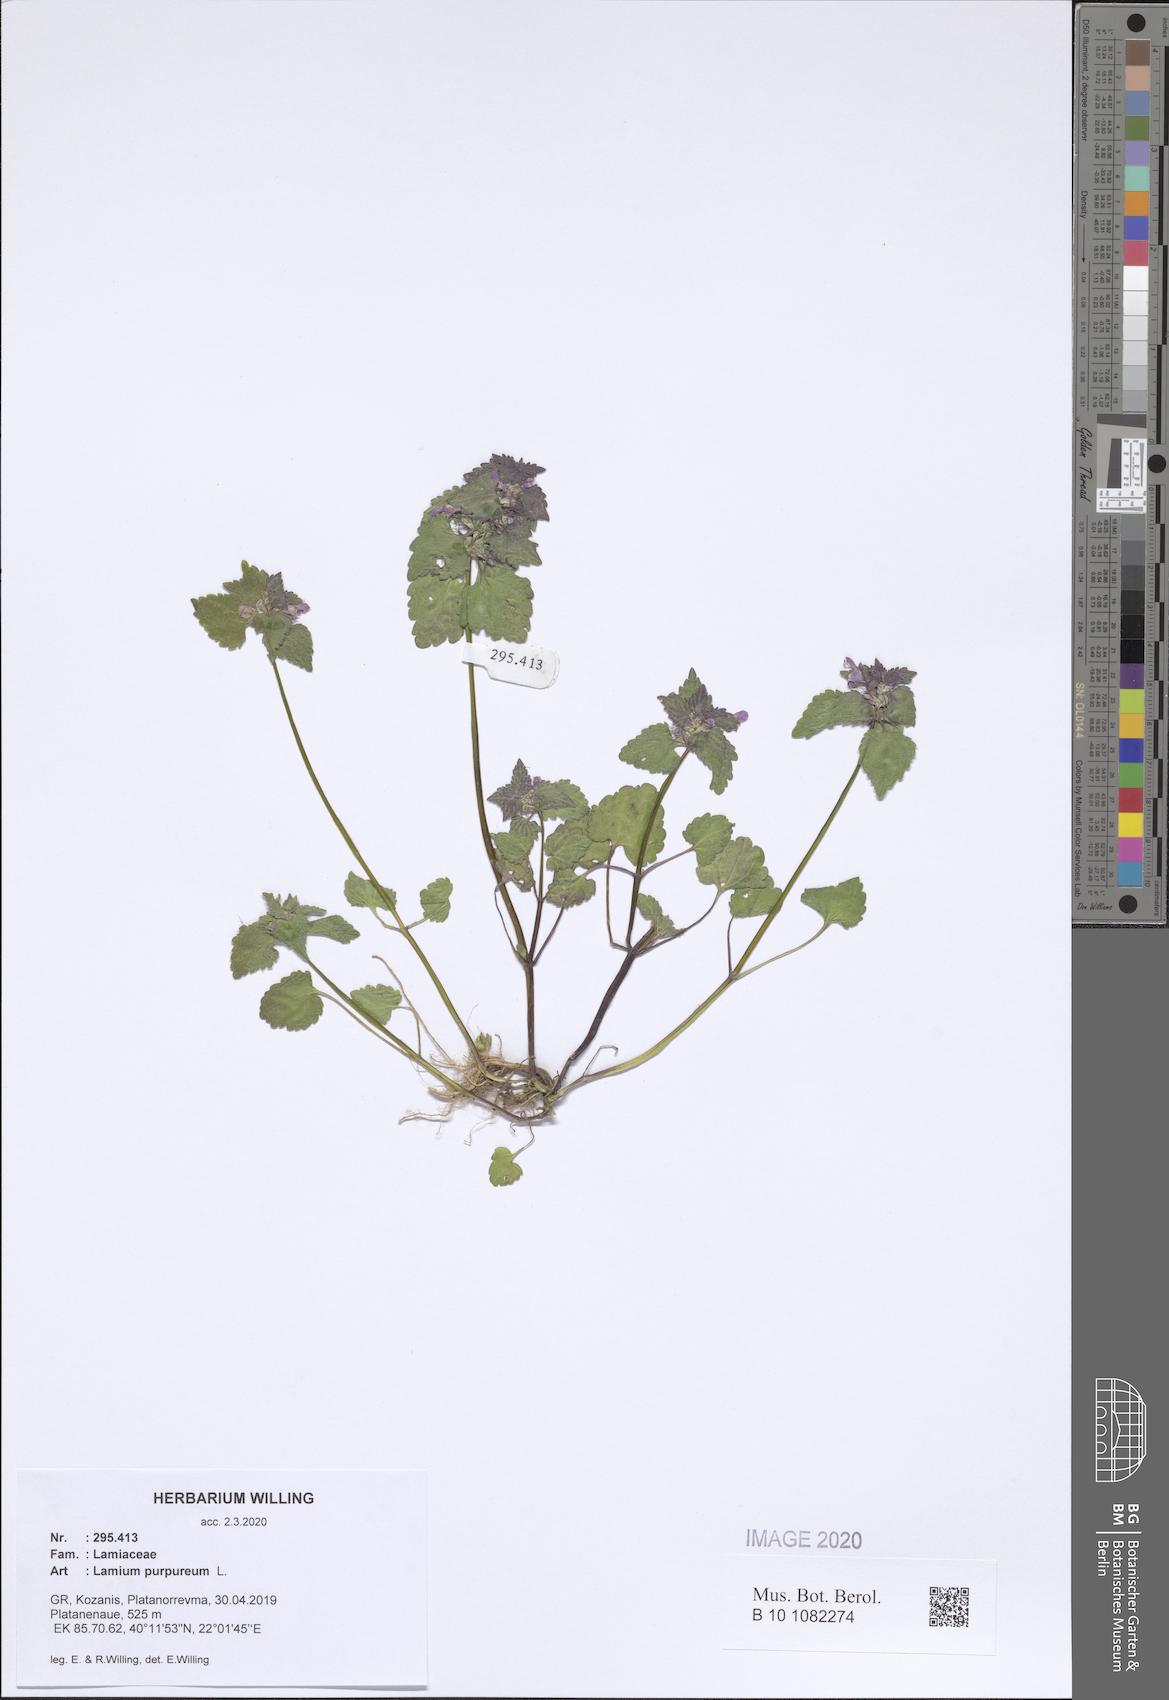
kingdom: Plantae
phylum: Tracheophyta
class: Magnoliopsida
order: Lamiales
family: Lamiaceae
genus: Lamium
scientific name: Lamium purpureum
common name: Red dead-nettle
